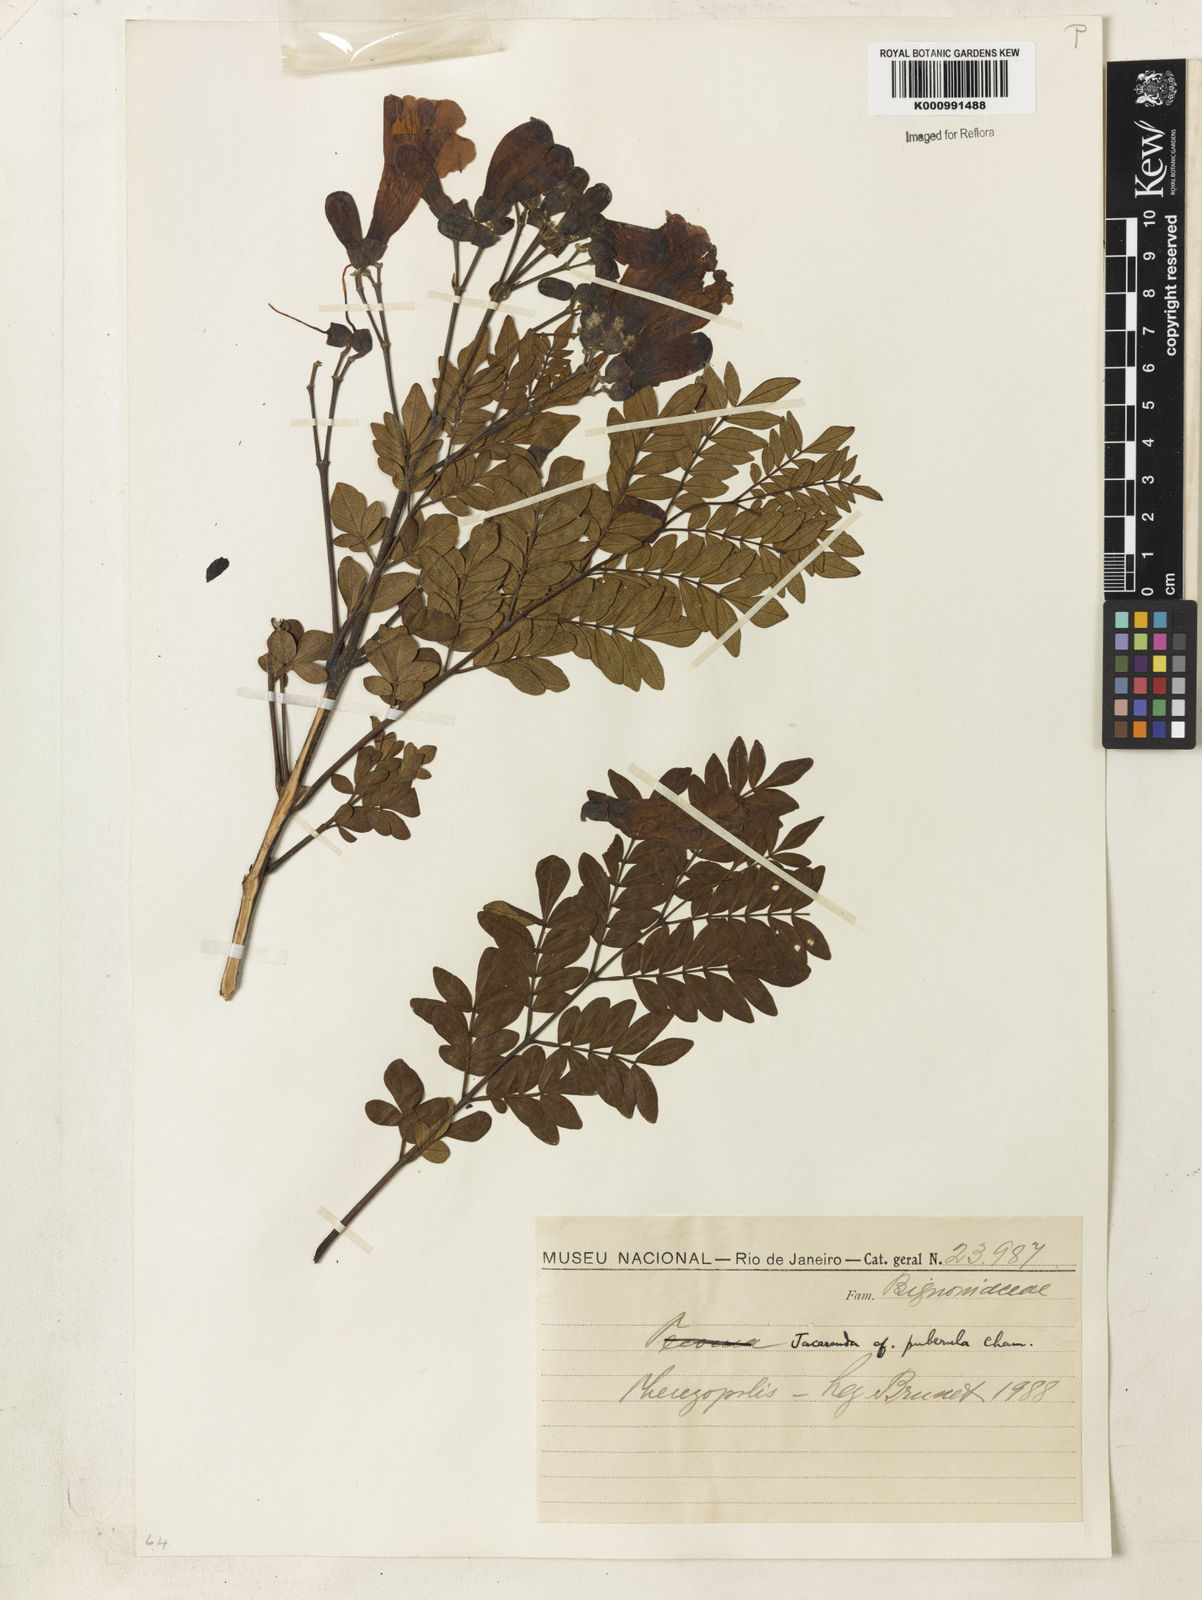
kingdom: Plantae
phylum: Tracheophyta
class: Magnoliopsida
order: Lamiales
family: Bignoniaceae
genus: Jacaranda
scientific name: Jacaranda puberula
